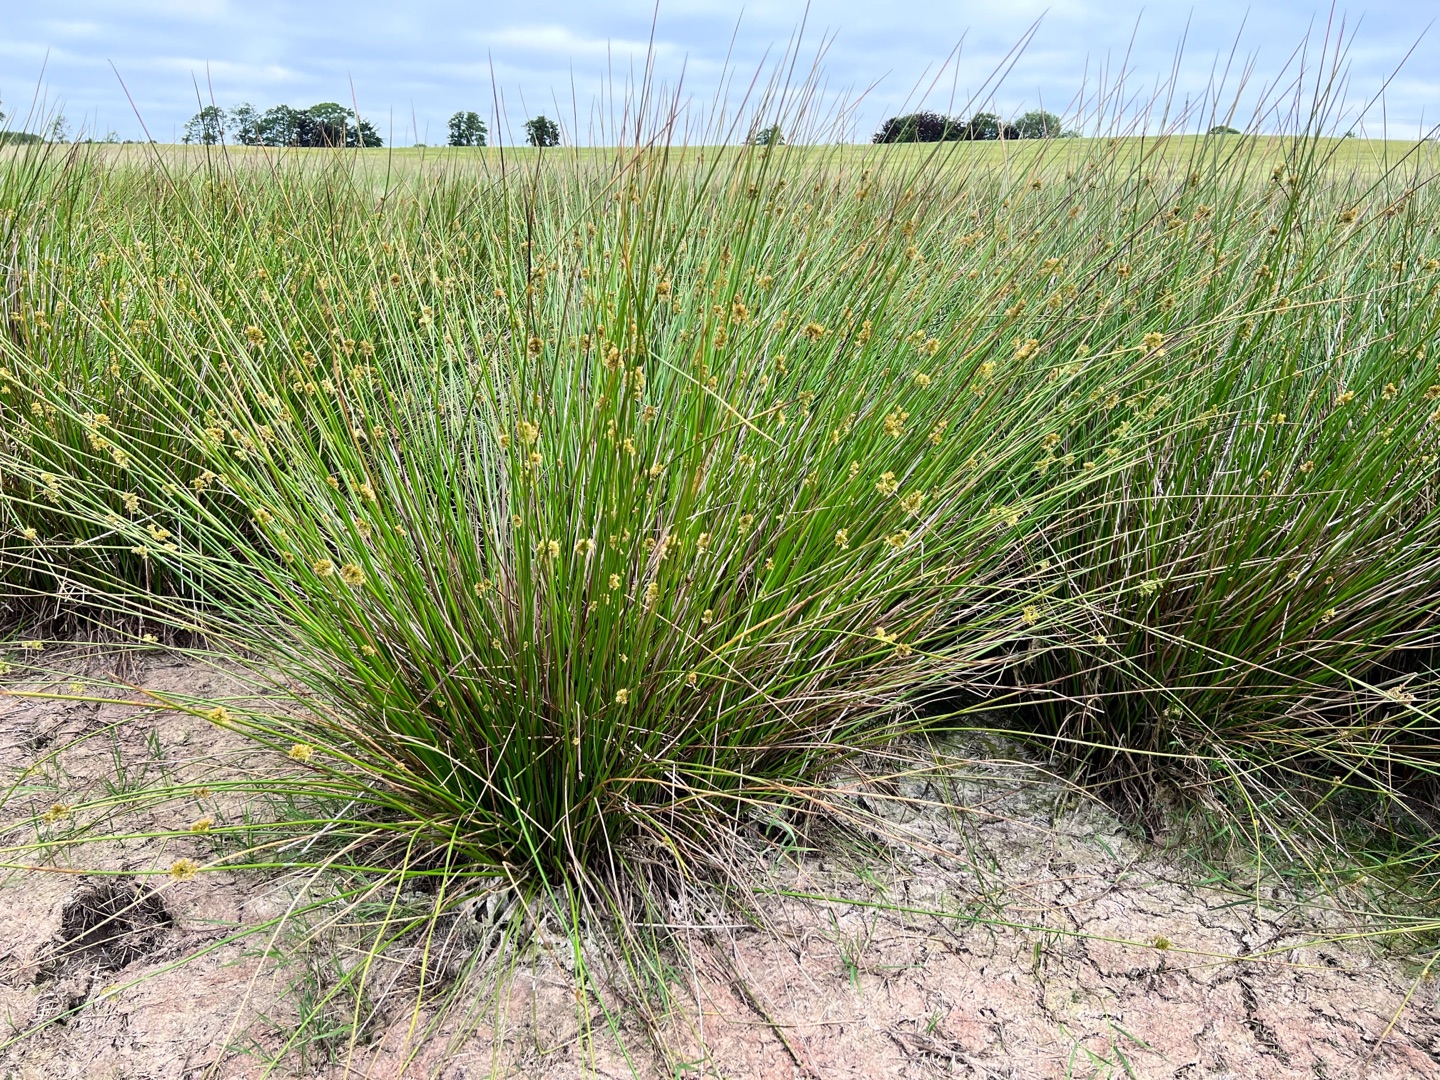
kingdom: Plantae
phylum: Tracheophyta
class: Liliopsida
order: Poales
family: Juncaceae
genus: Juncus
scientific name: Juncus effusus
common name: Lyse-siv
